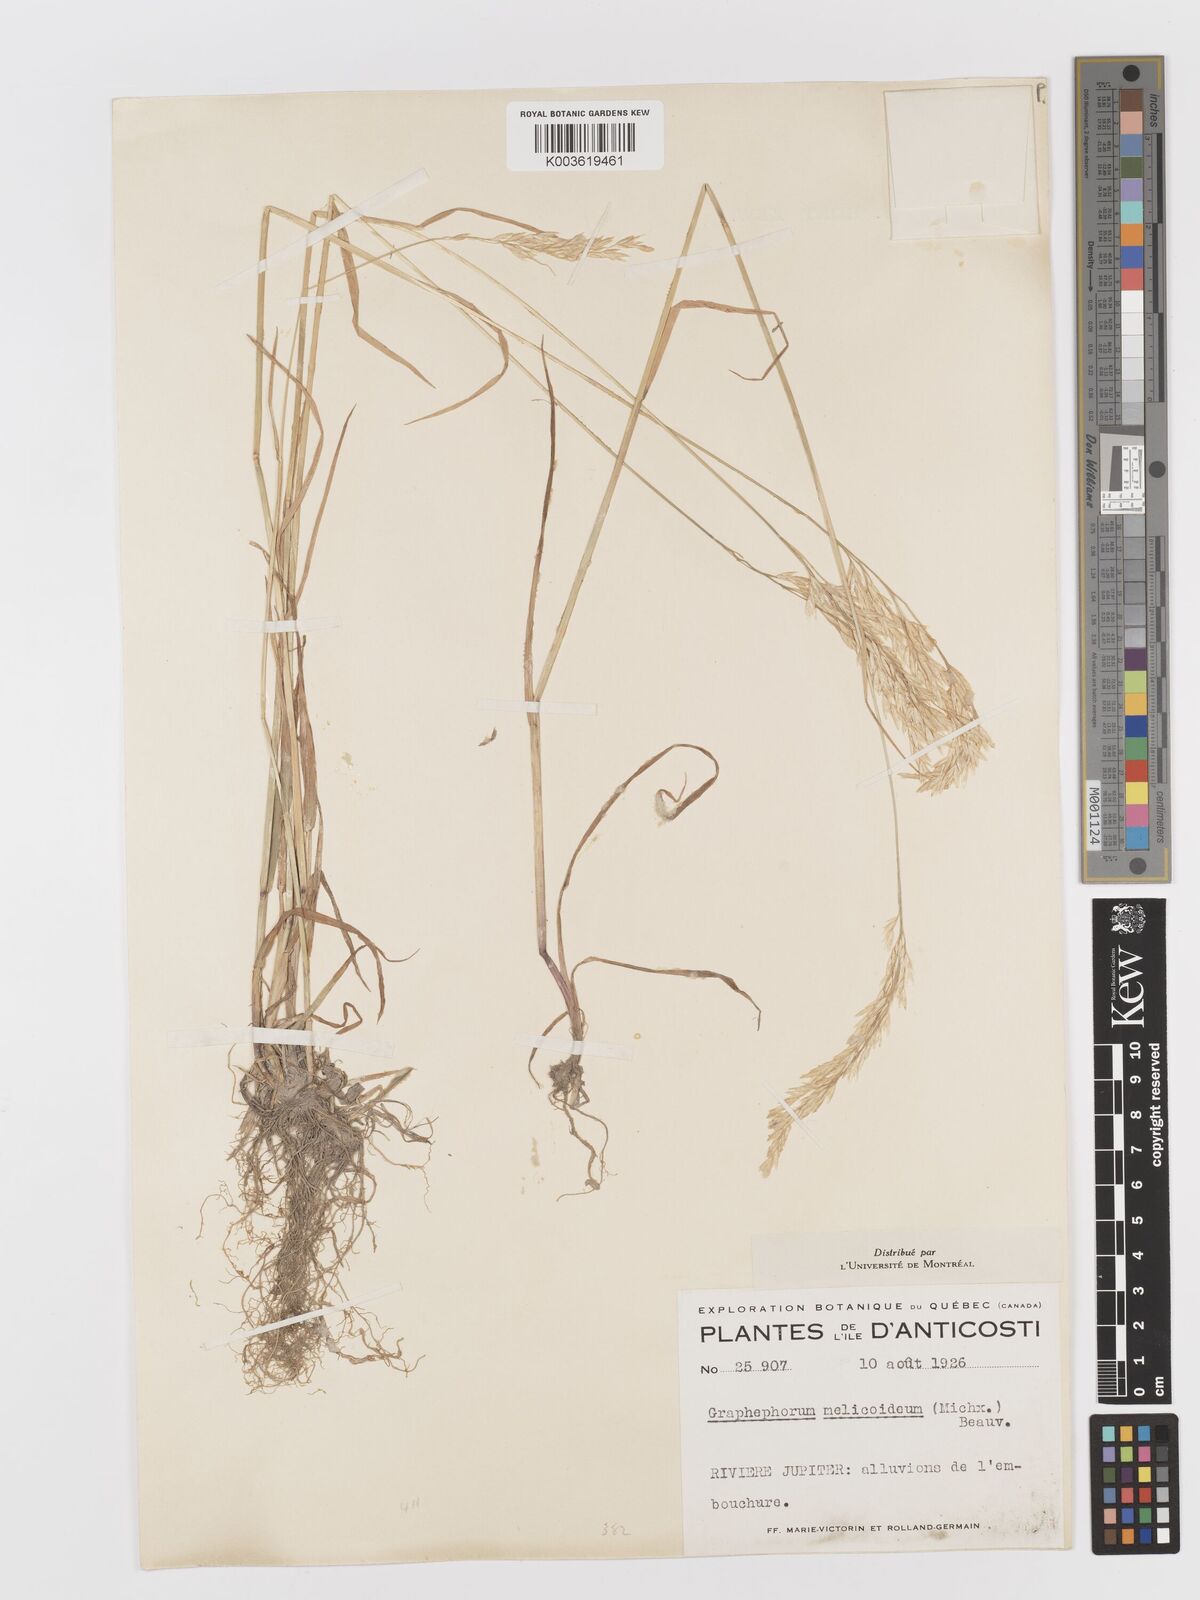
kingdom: Plantae
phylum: Tracheophyta
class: Liliopsida
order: Poales
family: Poaceae
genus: Graphephorum
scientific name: Graphephorum melicoides
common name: False melic
